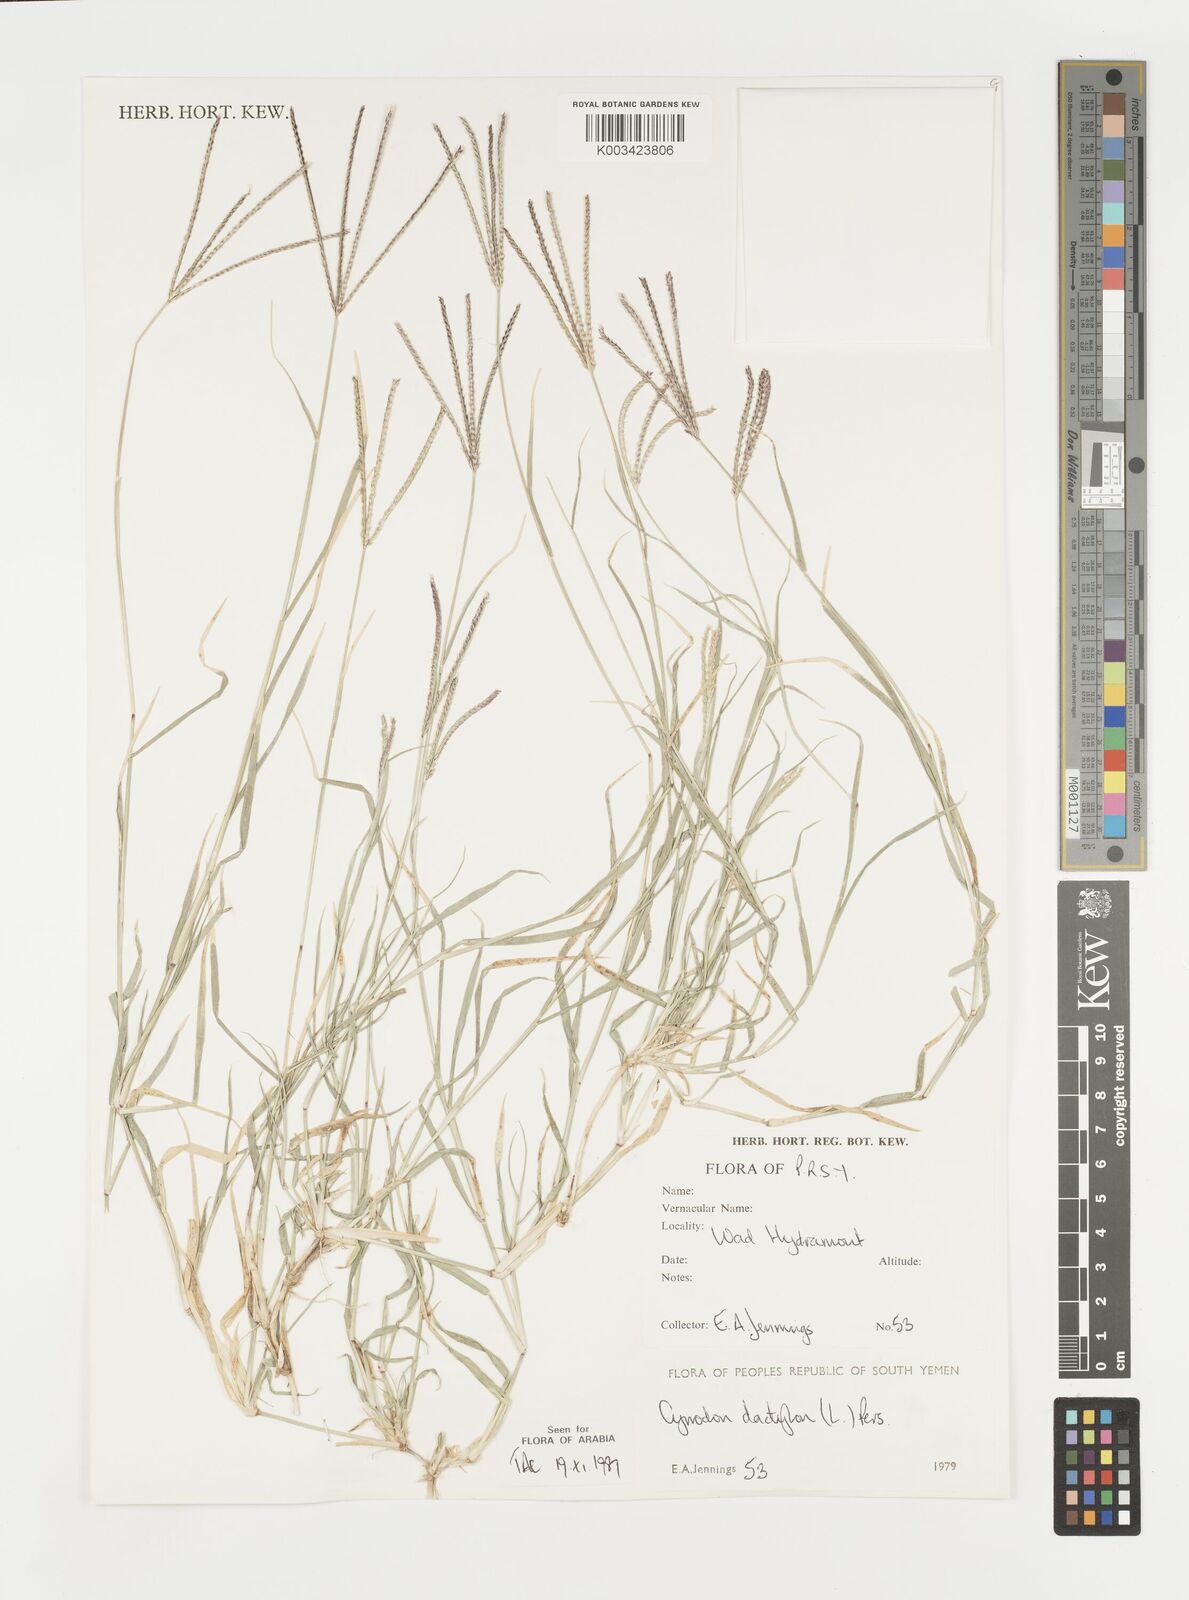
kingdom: Plantae
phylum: Tracheophyta
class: Liliopsida
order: Poales
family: Poaceae
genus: Cynodon
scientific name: Cynodon dactylon
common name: Bermuda grass
